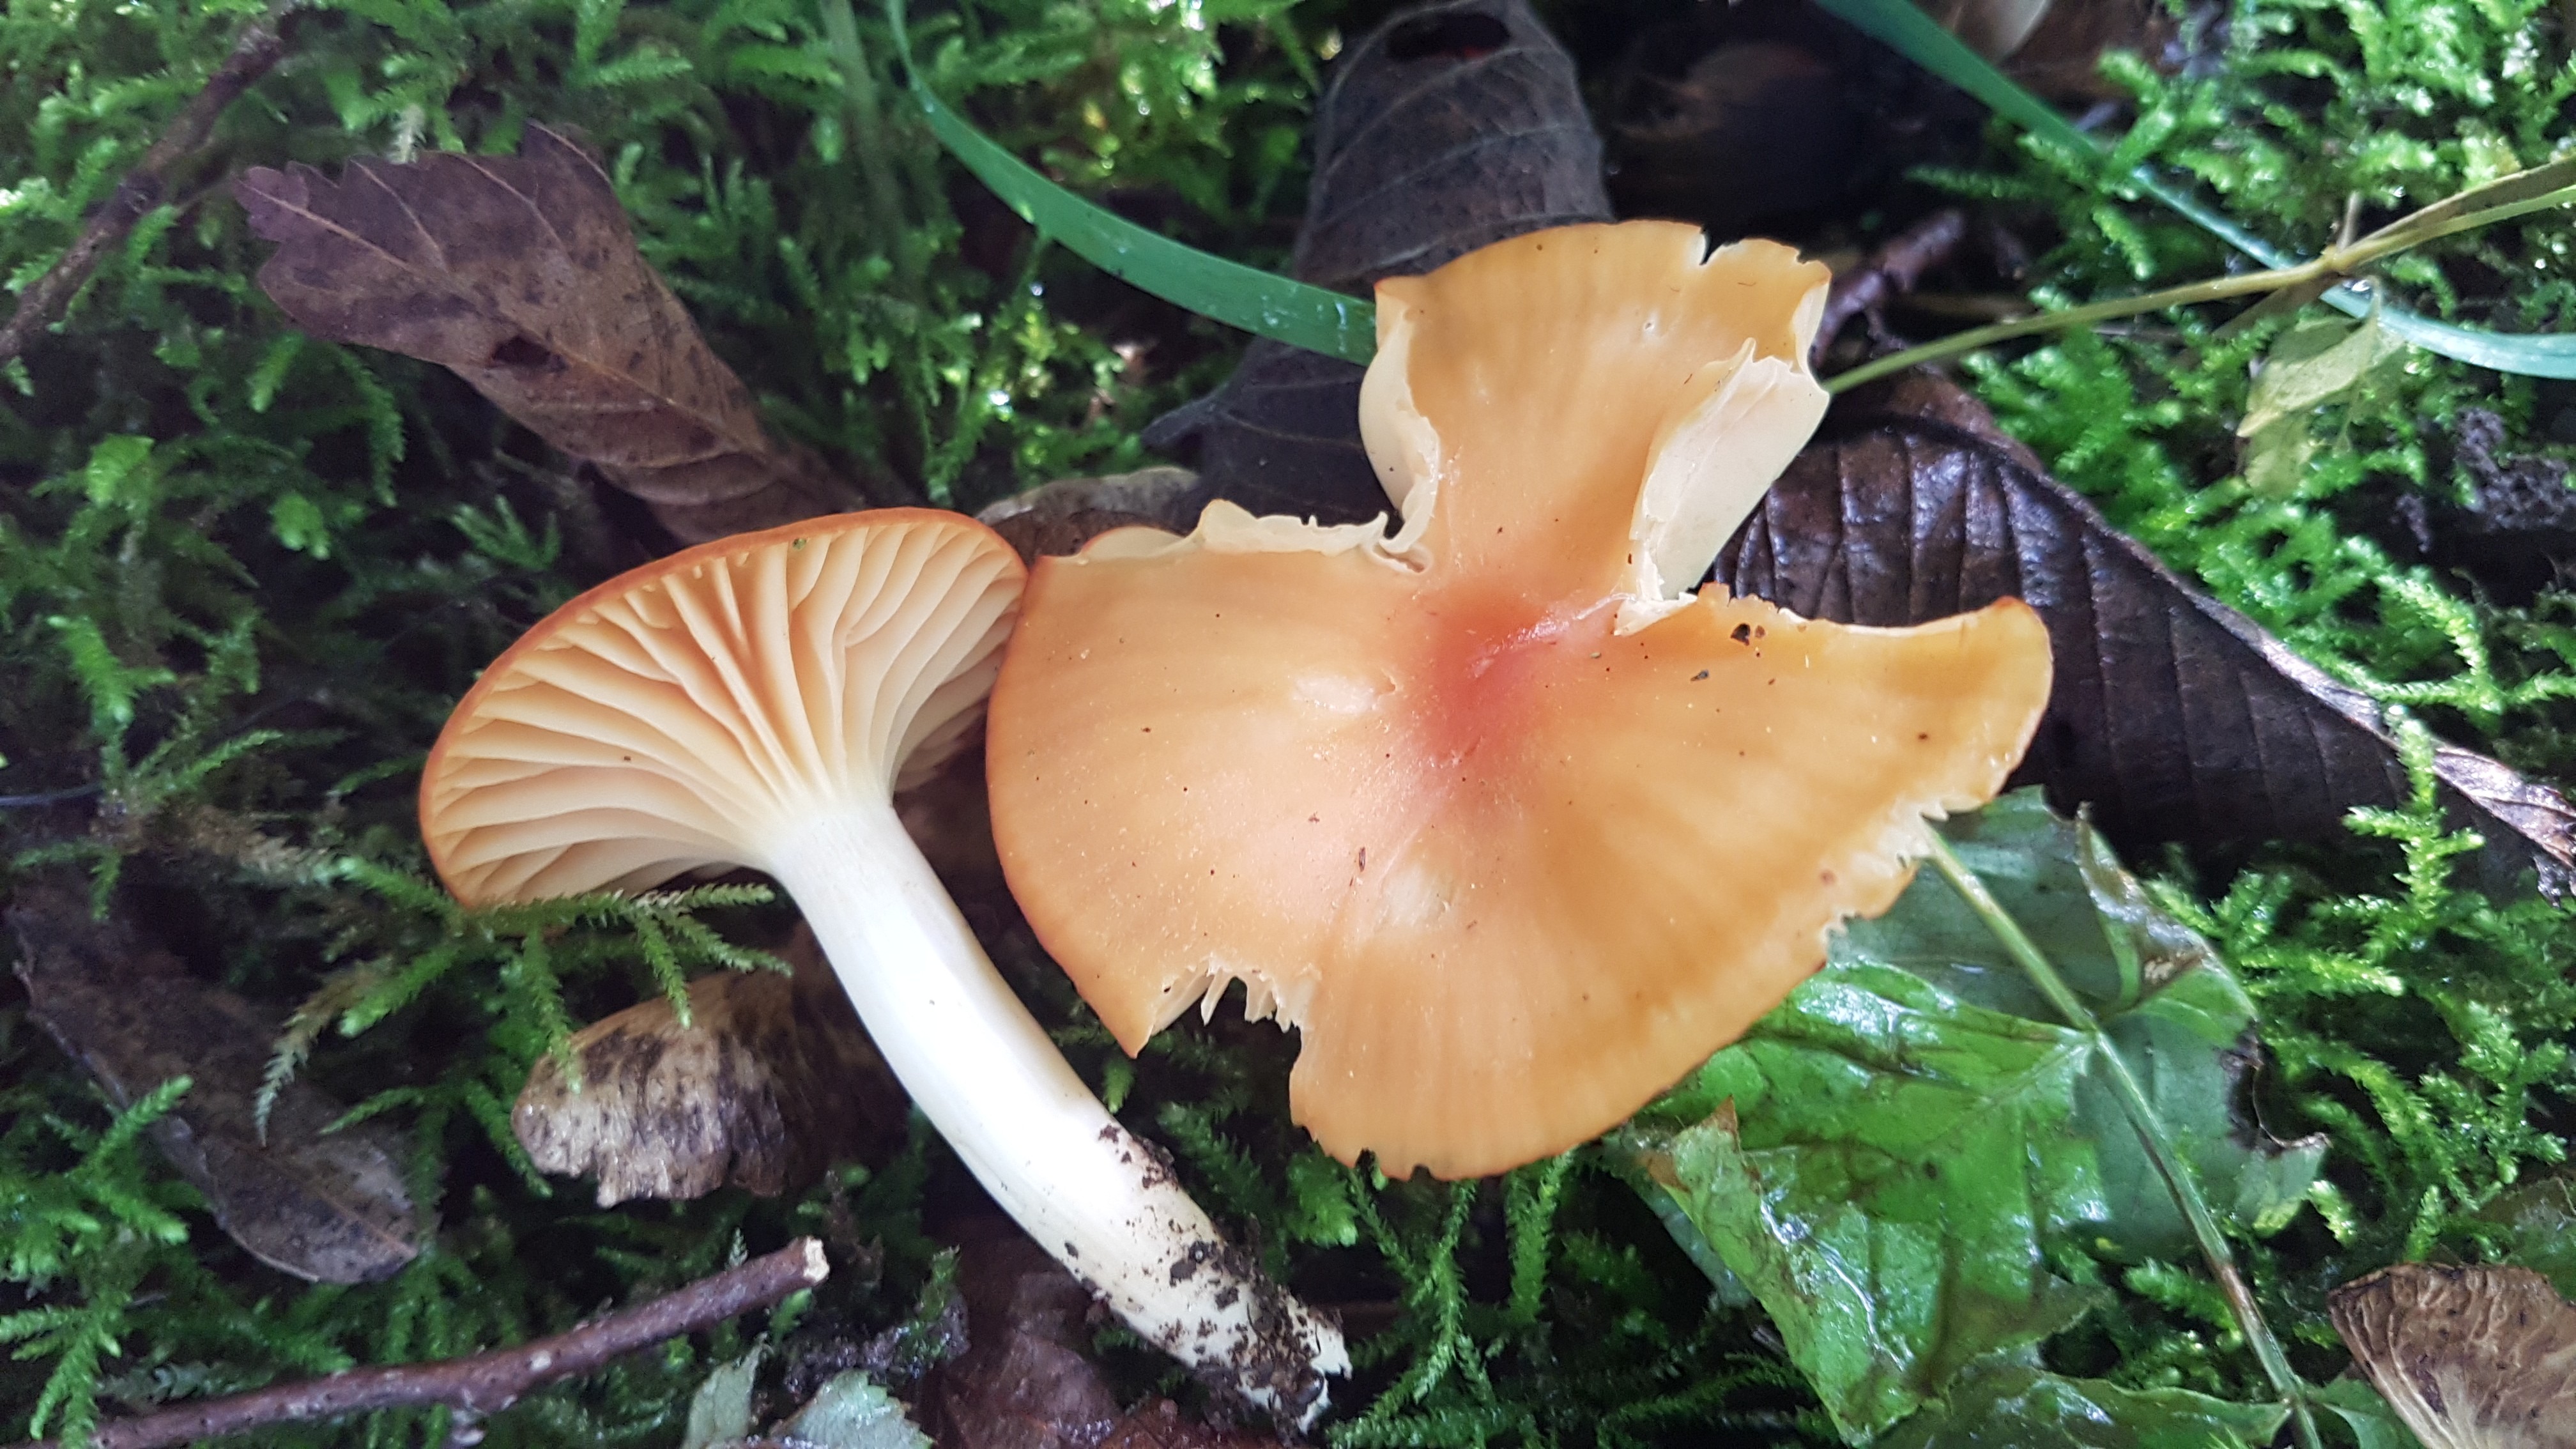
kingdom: Fungi
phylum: Basidiomycota
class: Agaricomycetes
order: Agaricales
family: Hygrophoraceae
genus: Cuphophyllus
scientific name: Cuphophyllus pratensis
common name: eng-vokshat
